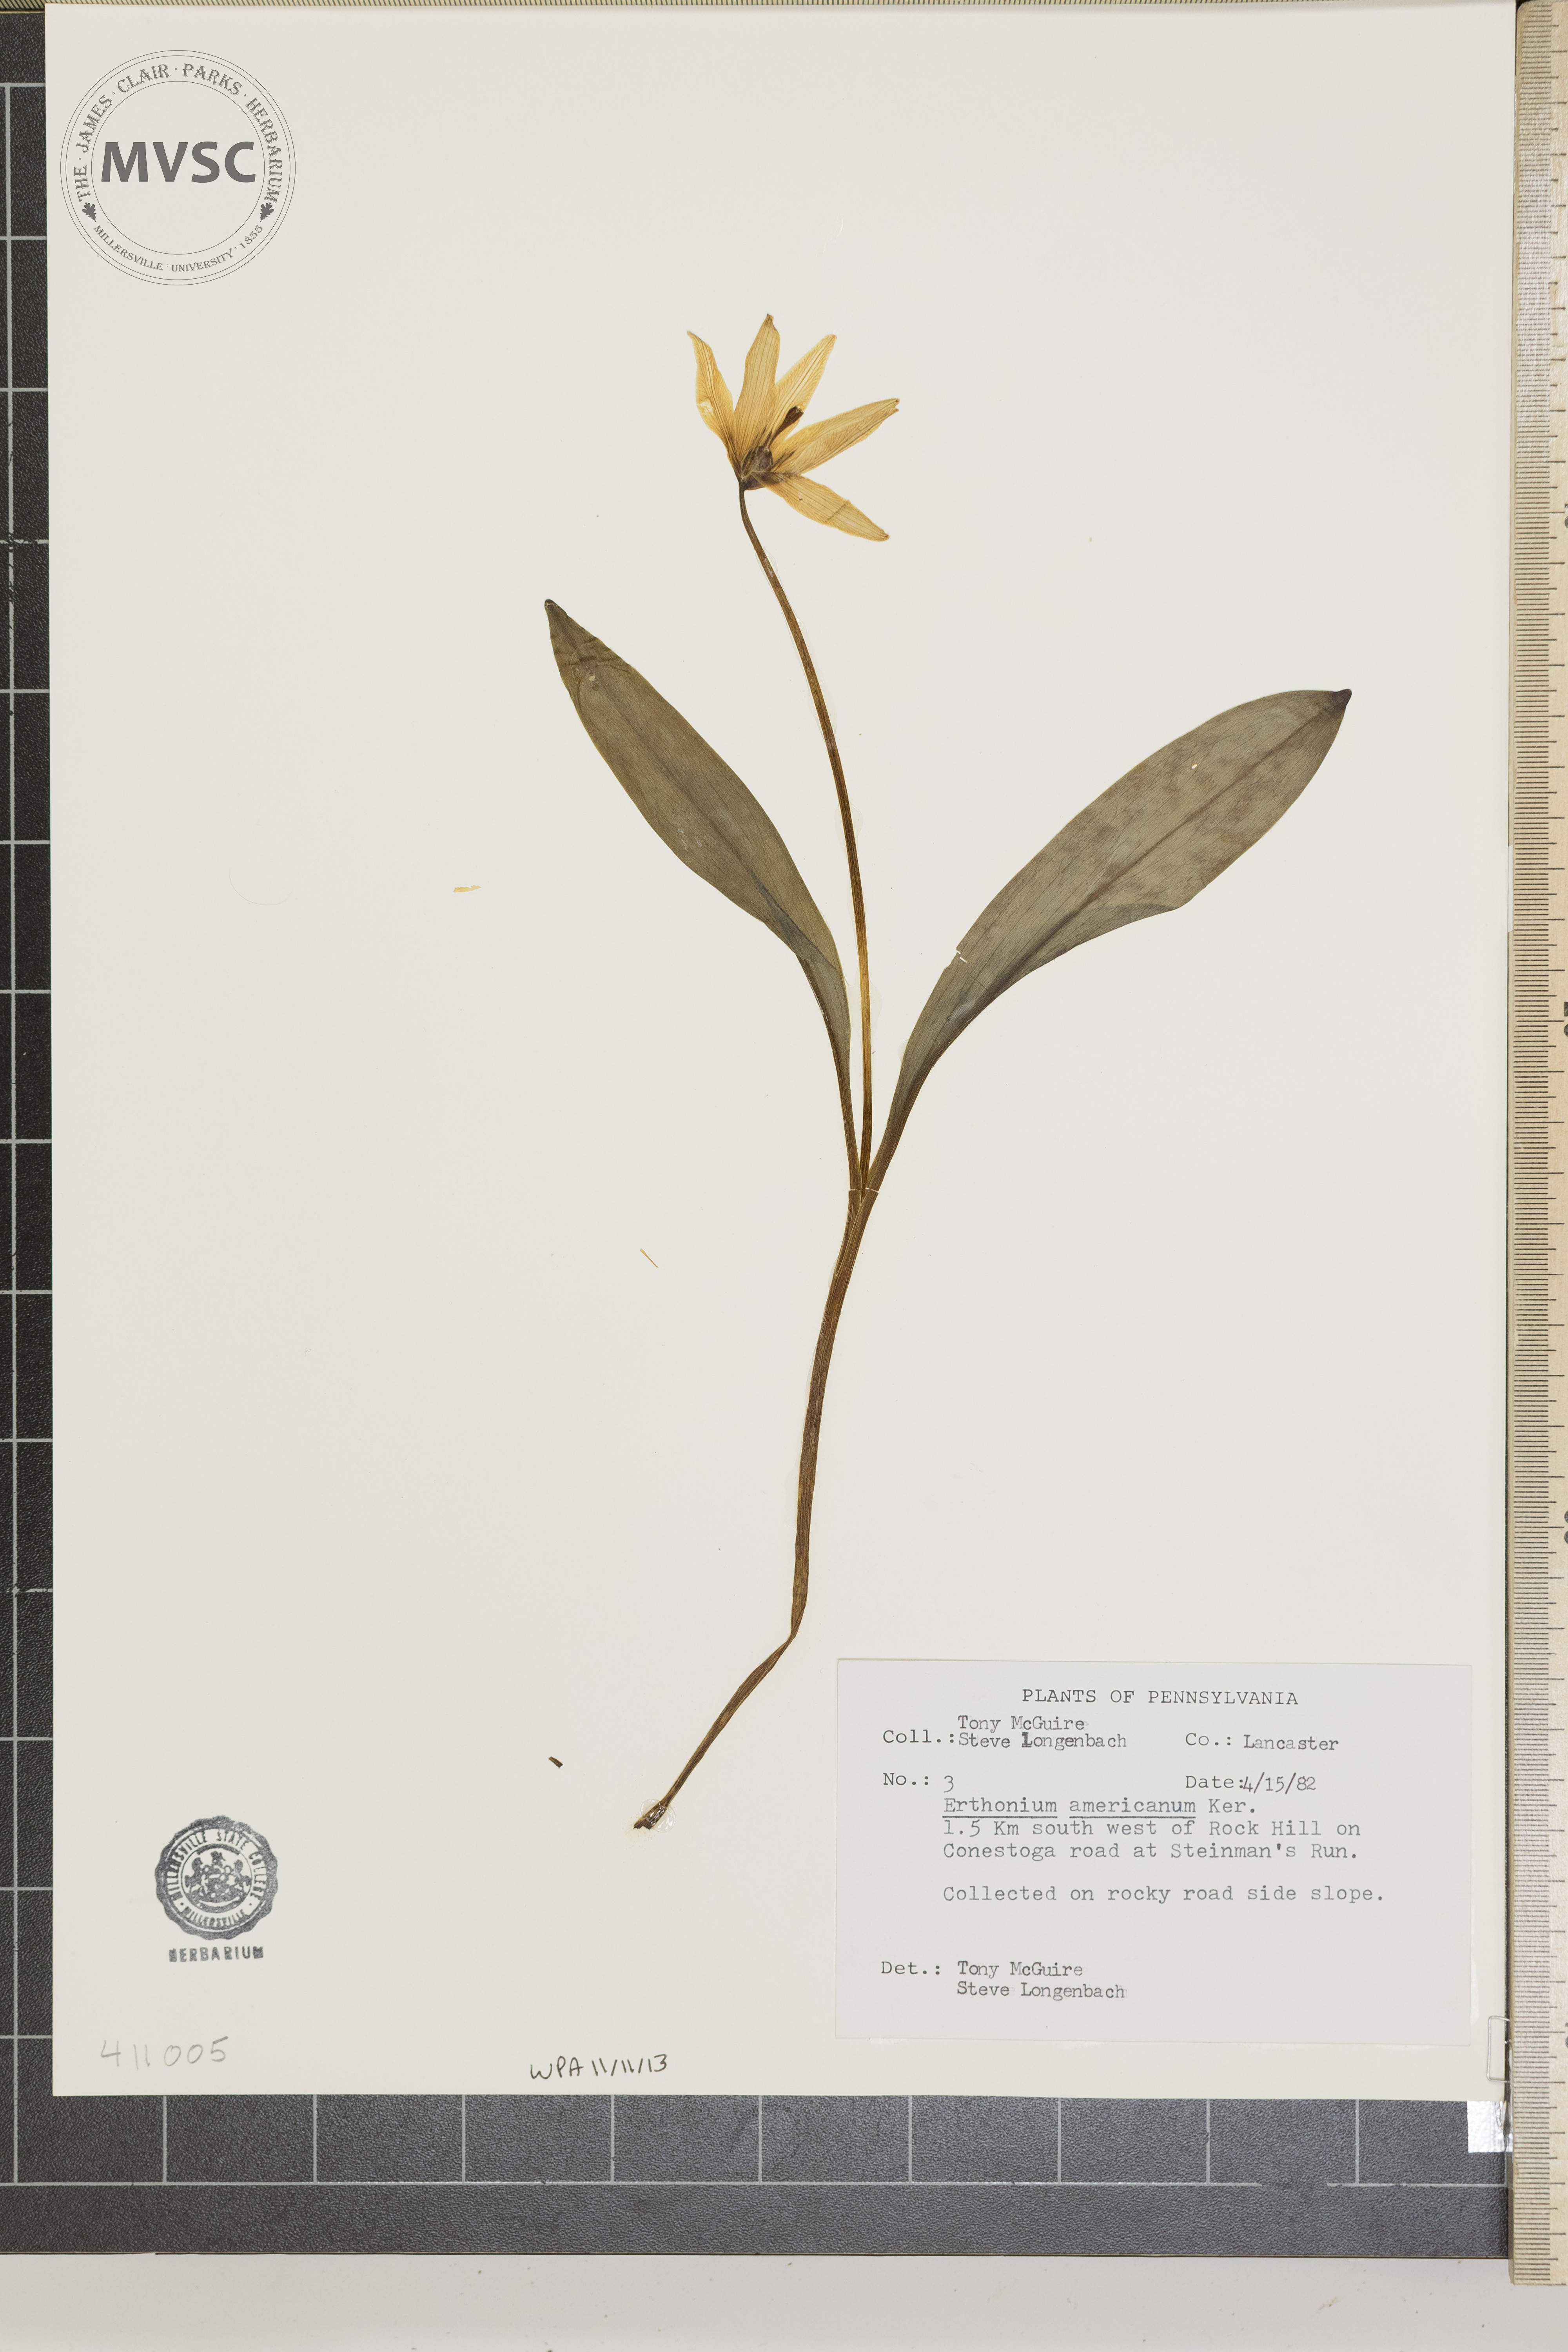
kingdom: Plantae
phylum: Tracheophyta
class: Liliopsida
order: Liliales
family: Liliaceae
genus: Erythronium
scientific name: Erythronium americanum
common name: Yellow adder's-tongue
